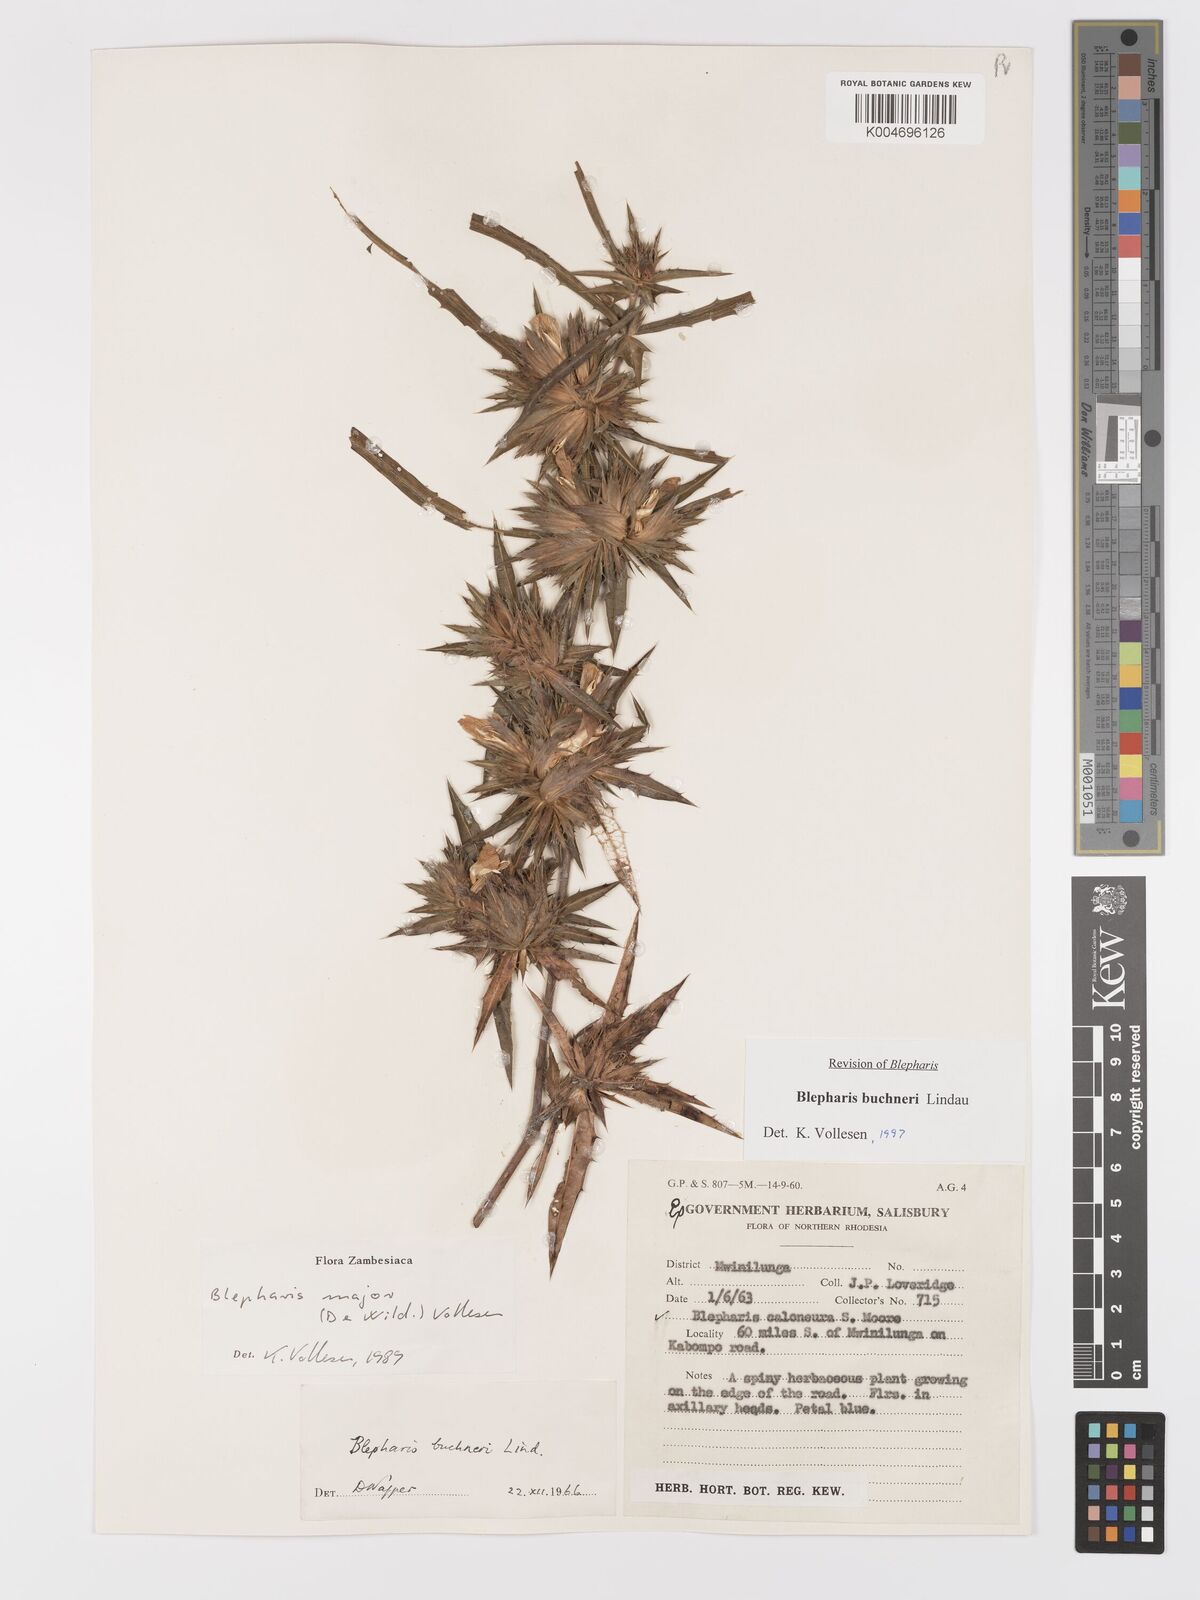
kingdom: Plantae
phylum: Tracheophyta
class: Magnoliopsida
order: Lamiales
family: Acanthaceae
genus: Blepharis
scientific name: Blepharis buchneri
